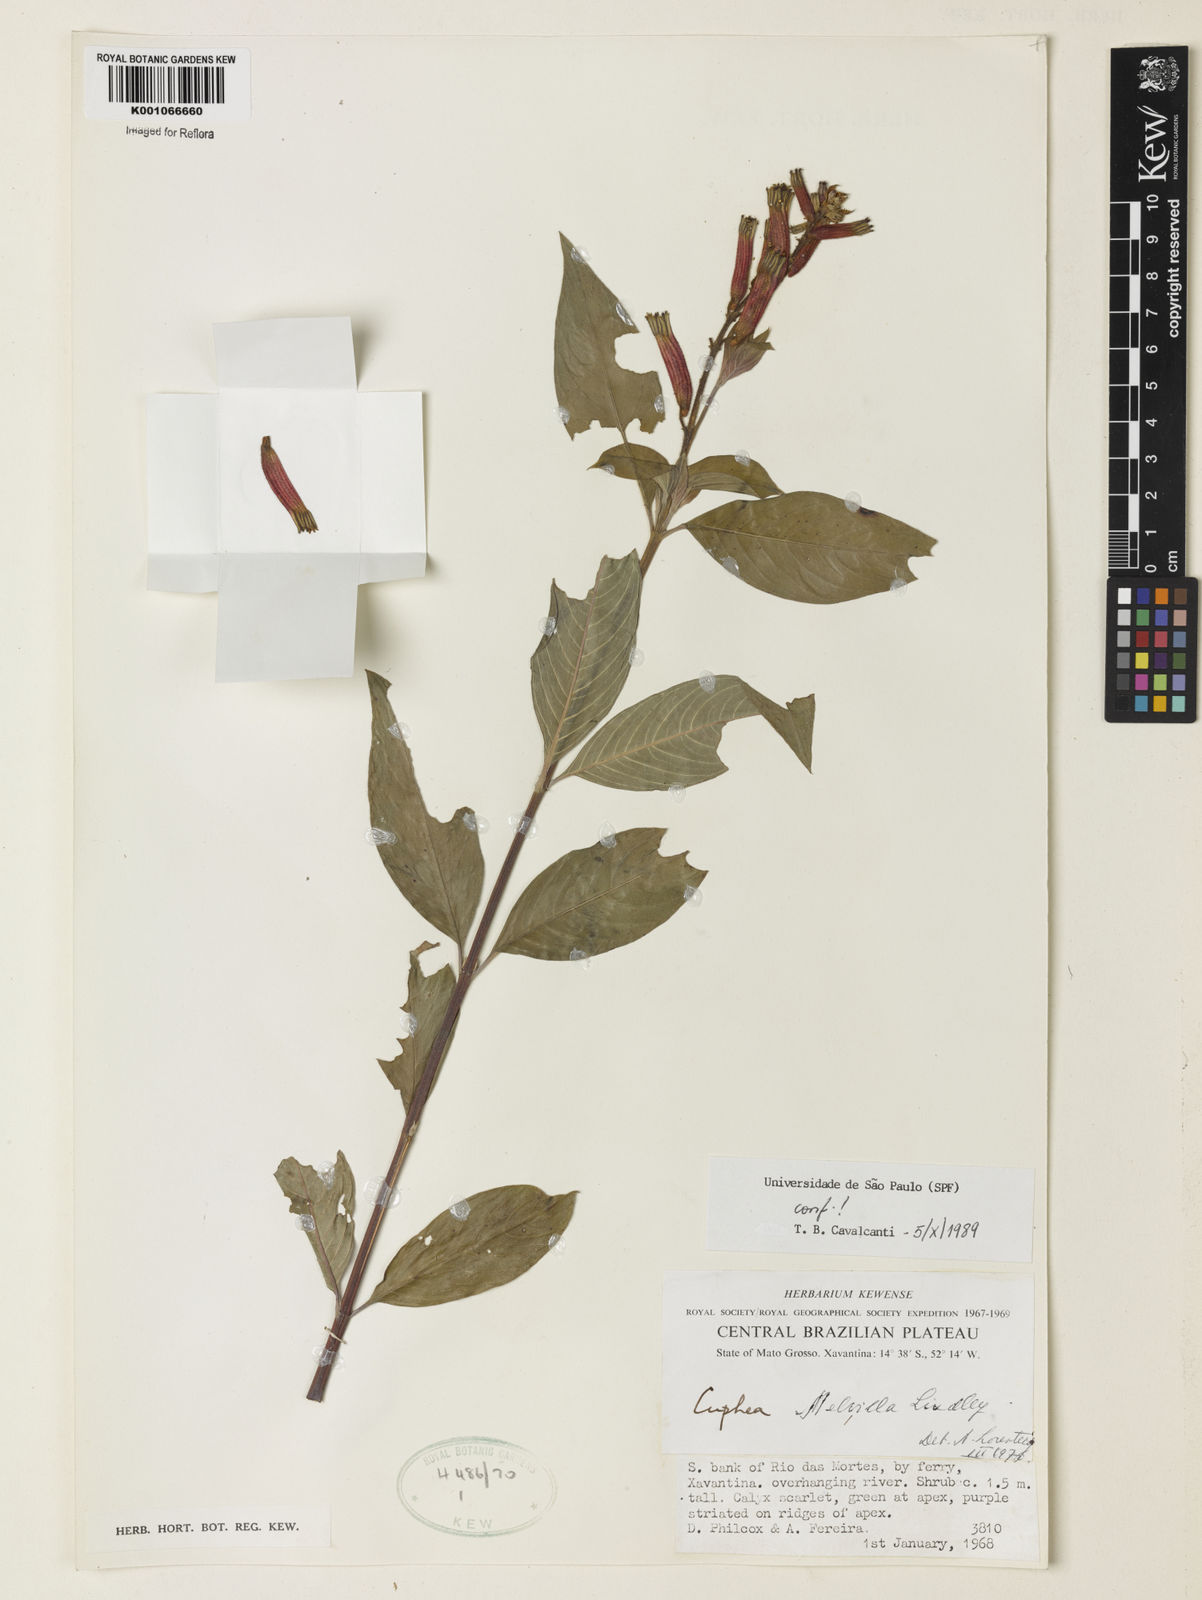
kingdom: Plantae
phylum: Tracheophyta
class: Magnoliopsida
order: Myrtales
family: Lythraceae
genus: Cuphea
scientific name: Cuphea melvilla
